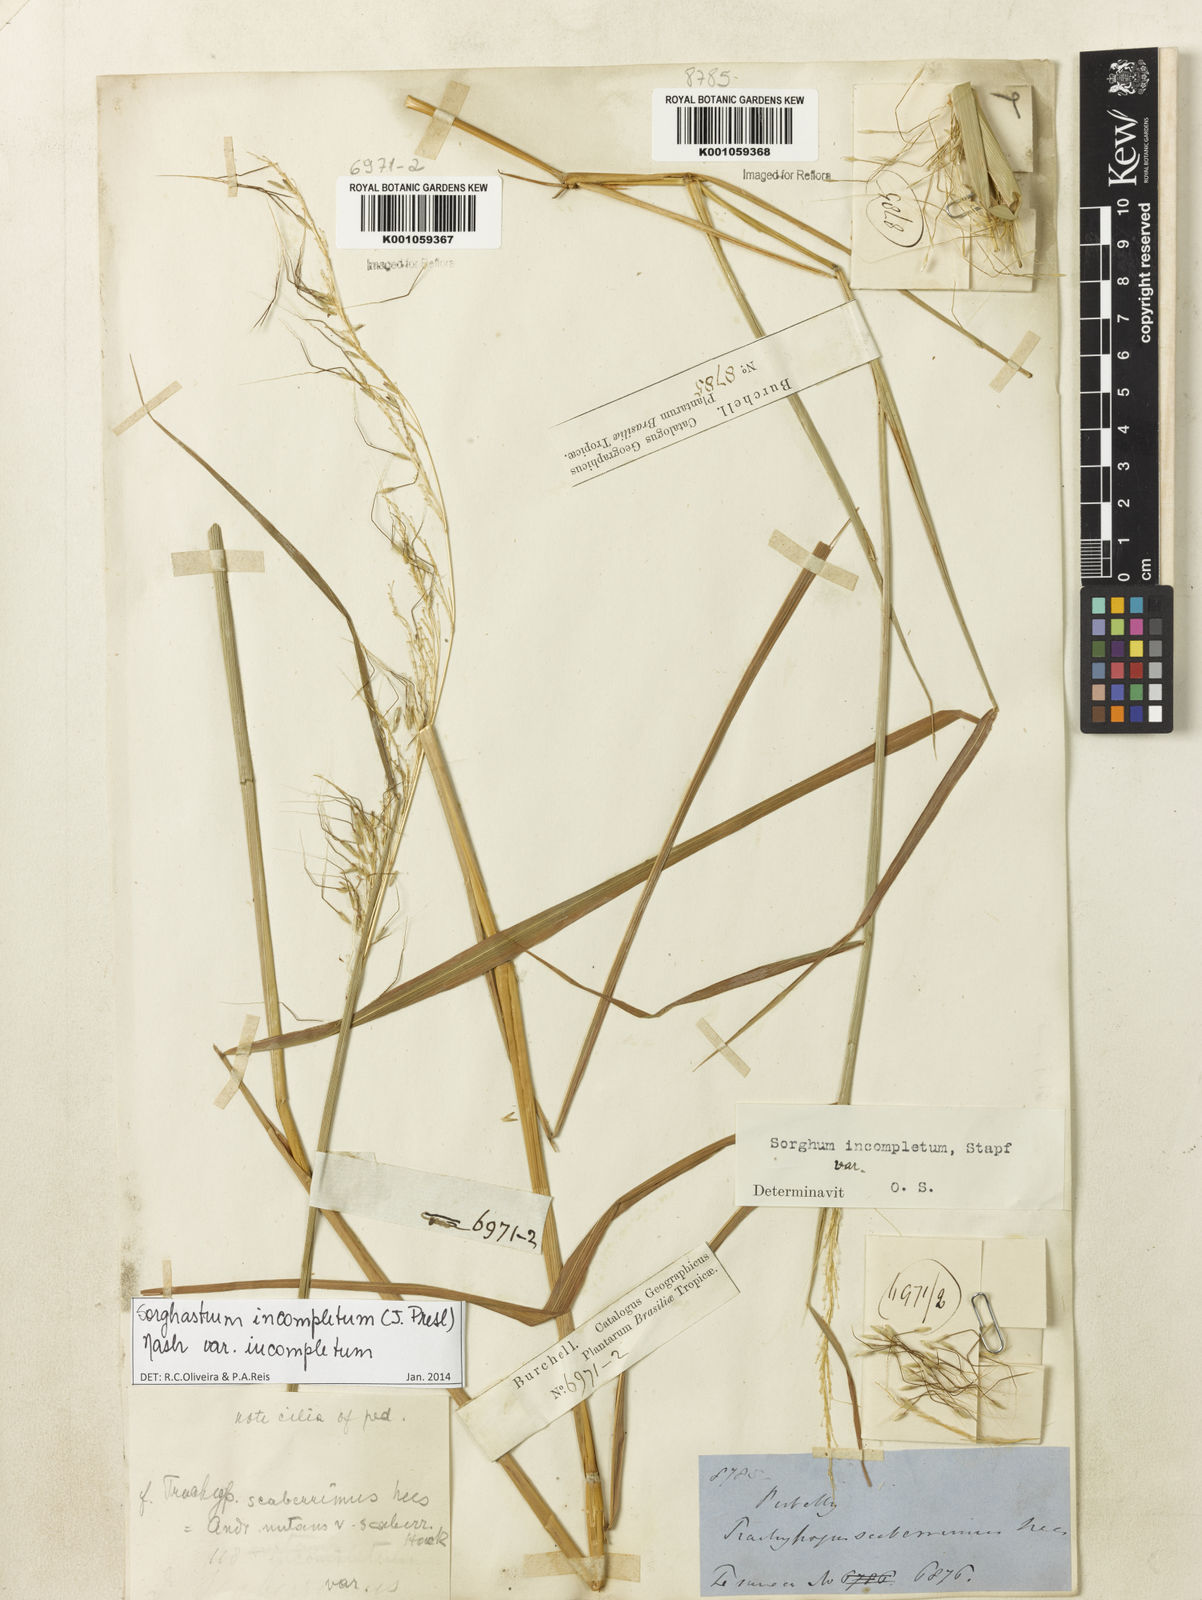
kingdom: Plantae
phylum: Tracheophyta
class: Liliopsida
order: Poales
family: Poaceae
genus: Sorghastrum
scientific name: Sorghastrum incompletum
